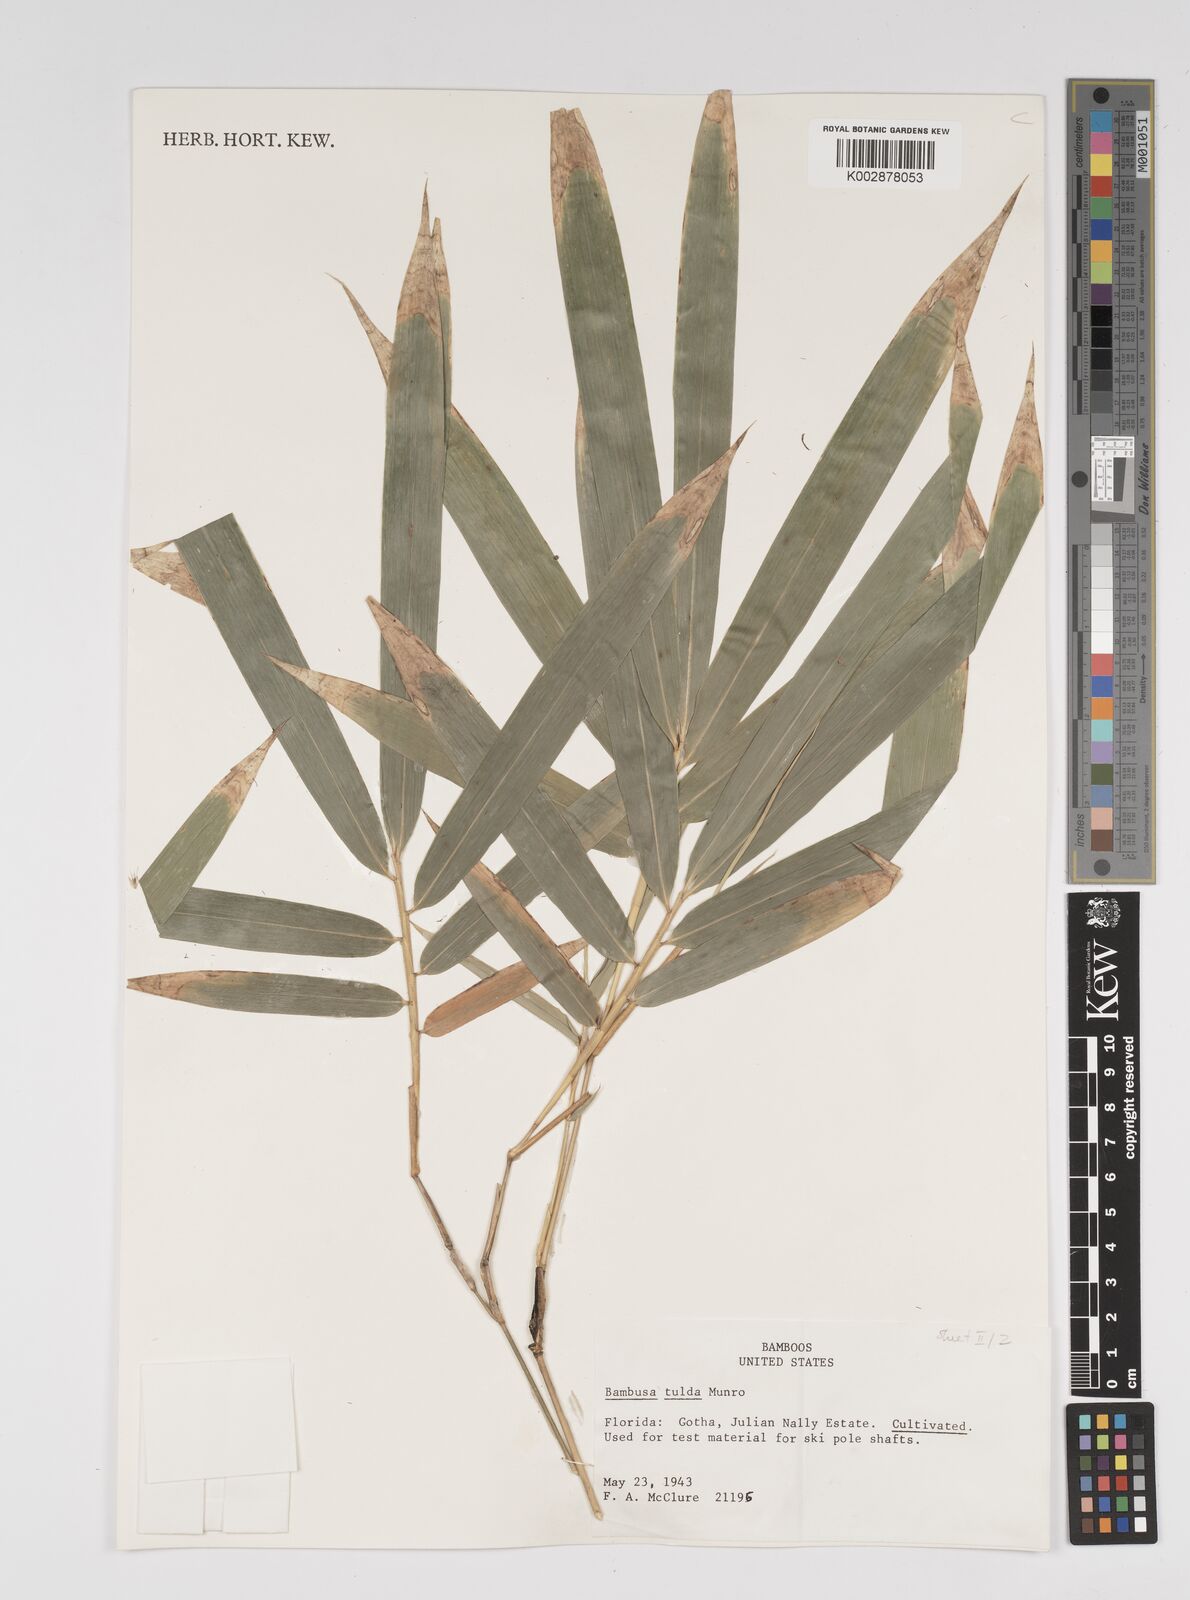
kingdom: Plantae
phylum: Tracheophyta
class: Liliopsida
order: Poales
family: Poaceae
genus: Bambusa
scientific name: Bambusa tulda
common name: Bengal bamboo
